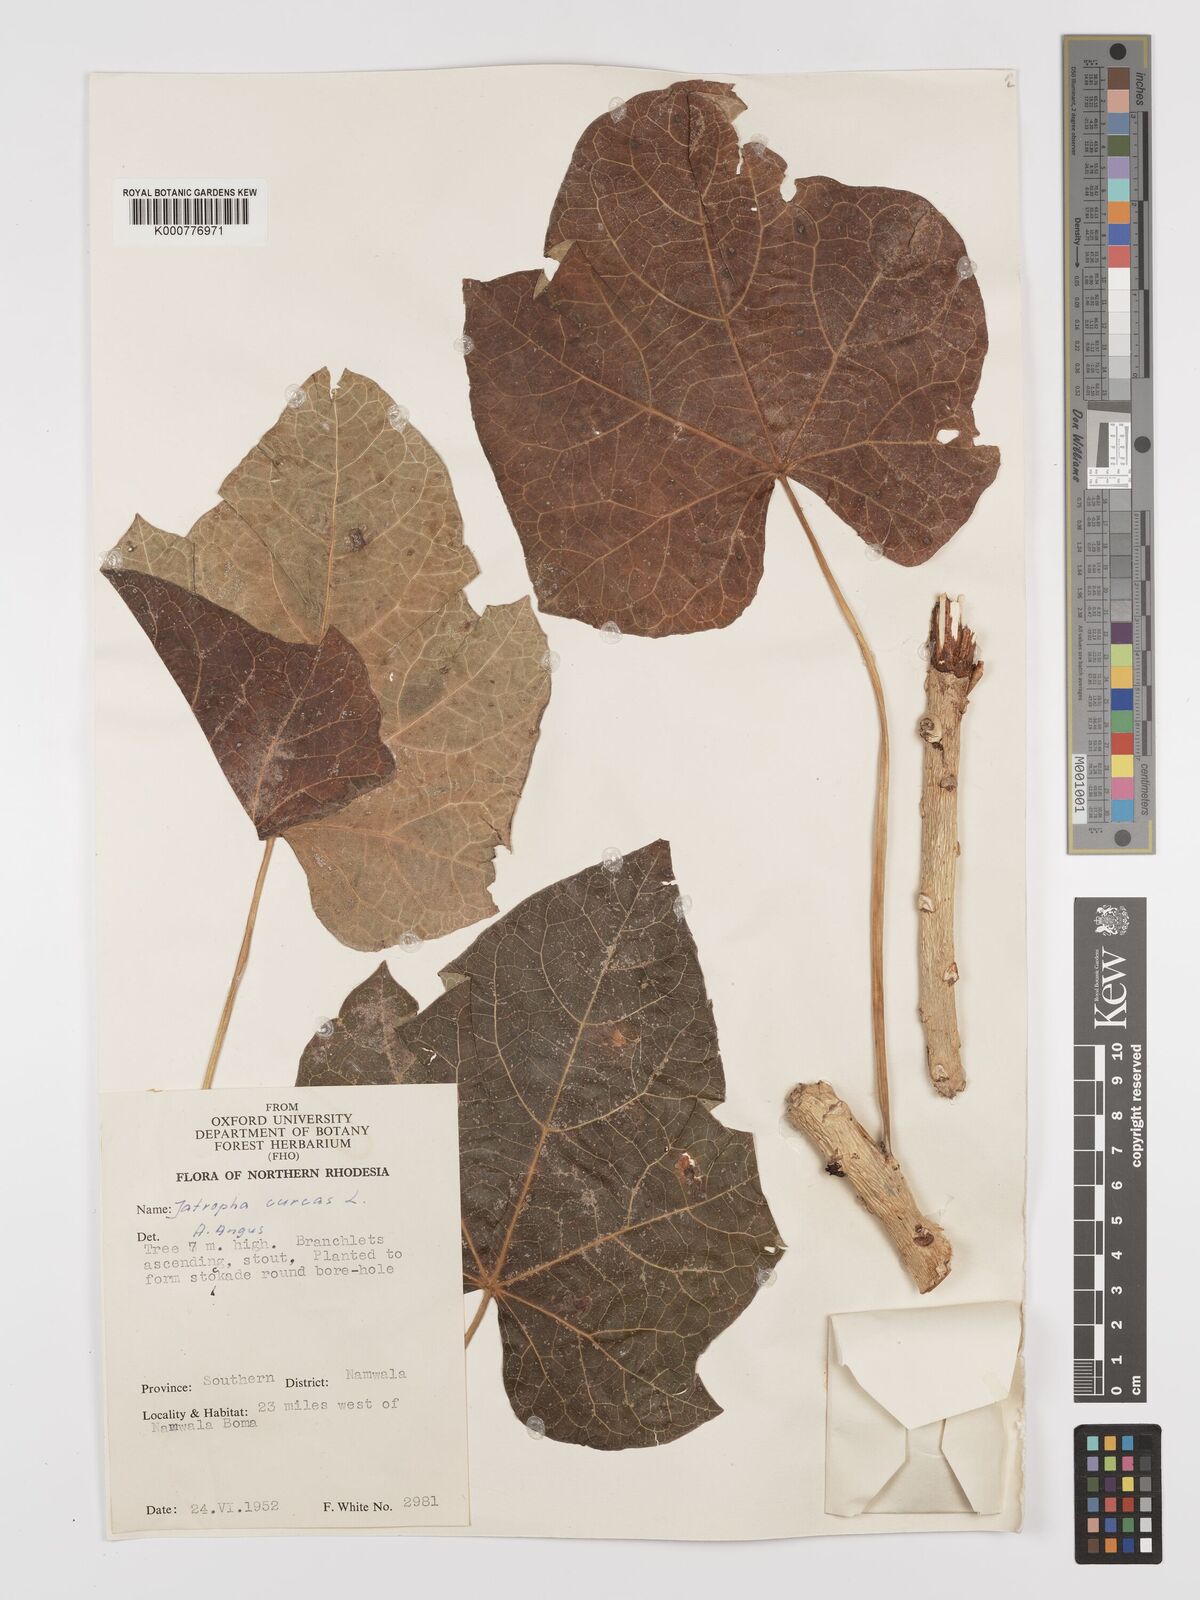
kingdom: Plantae
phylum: Tracheophyta
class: Magnoliopsida
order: Malpighiales
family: Euphorbiaceae
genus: Jatropha
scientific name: Jatropha curcas
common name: Barbados nut
